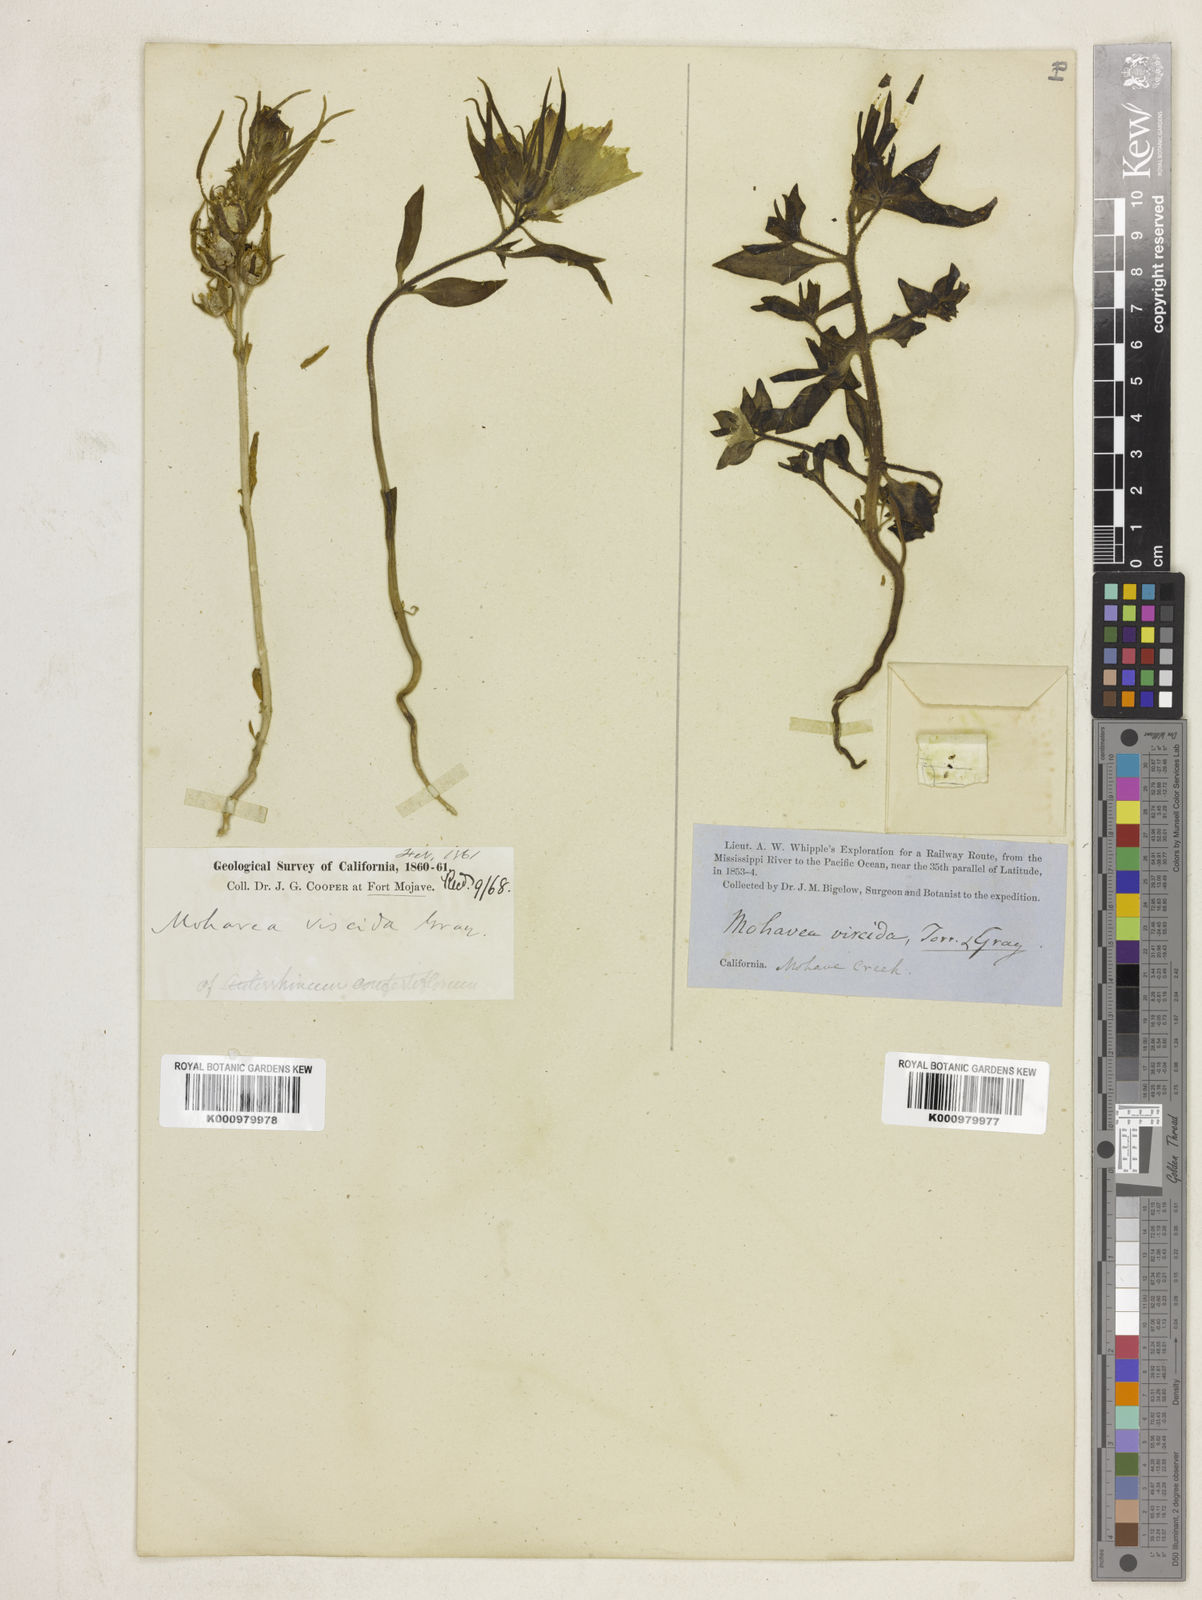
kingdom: Plantae
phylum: Tracheophyta
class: Magnoliopsida
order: Lamiales
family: Plantaginaceae
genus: Schweinfurthia
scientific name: Schweinfurthia
